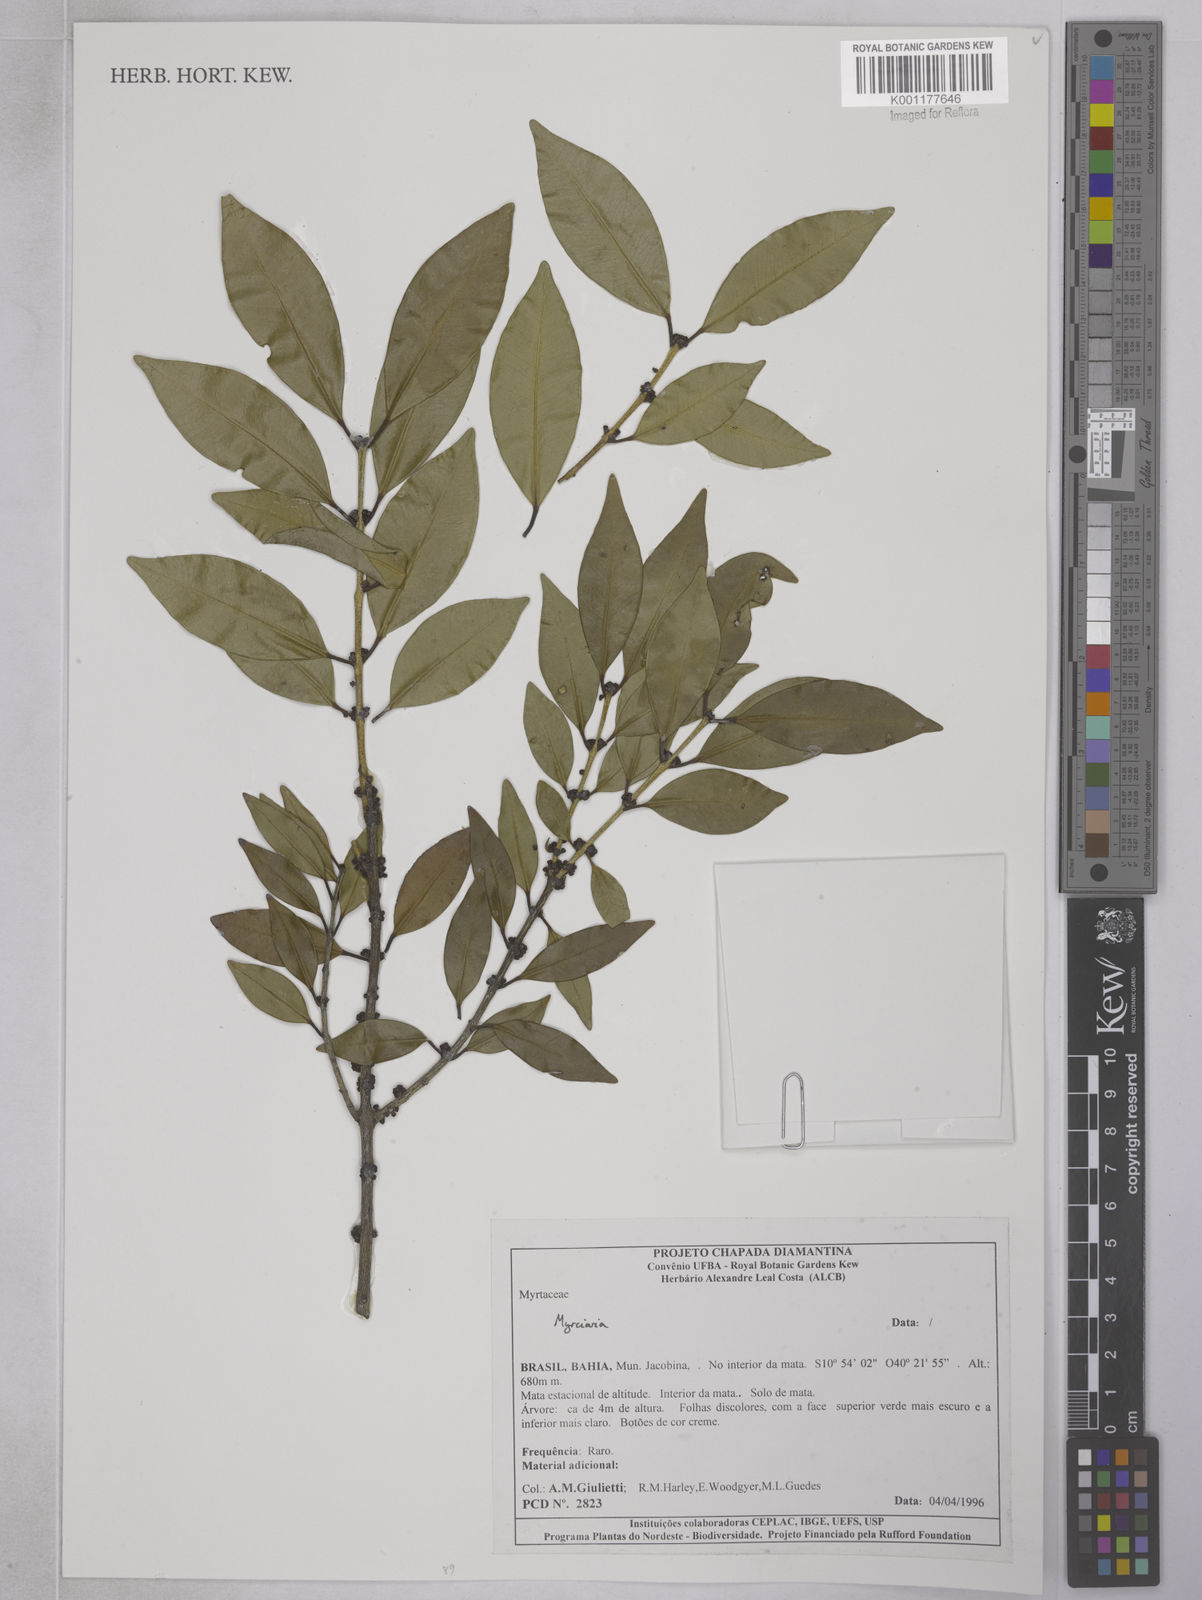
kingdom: Plantae
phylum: Tracheophyta
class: Magnoliopsida
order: Myrtales
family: Myrtaceae
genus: Plinia
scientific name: Plinia grandifolia
